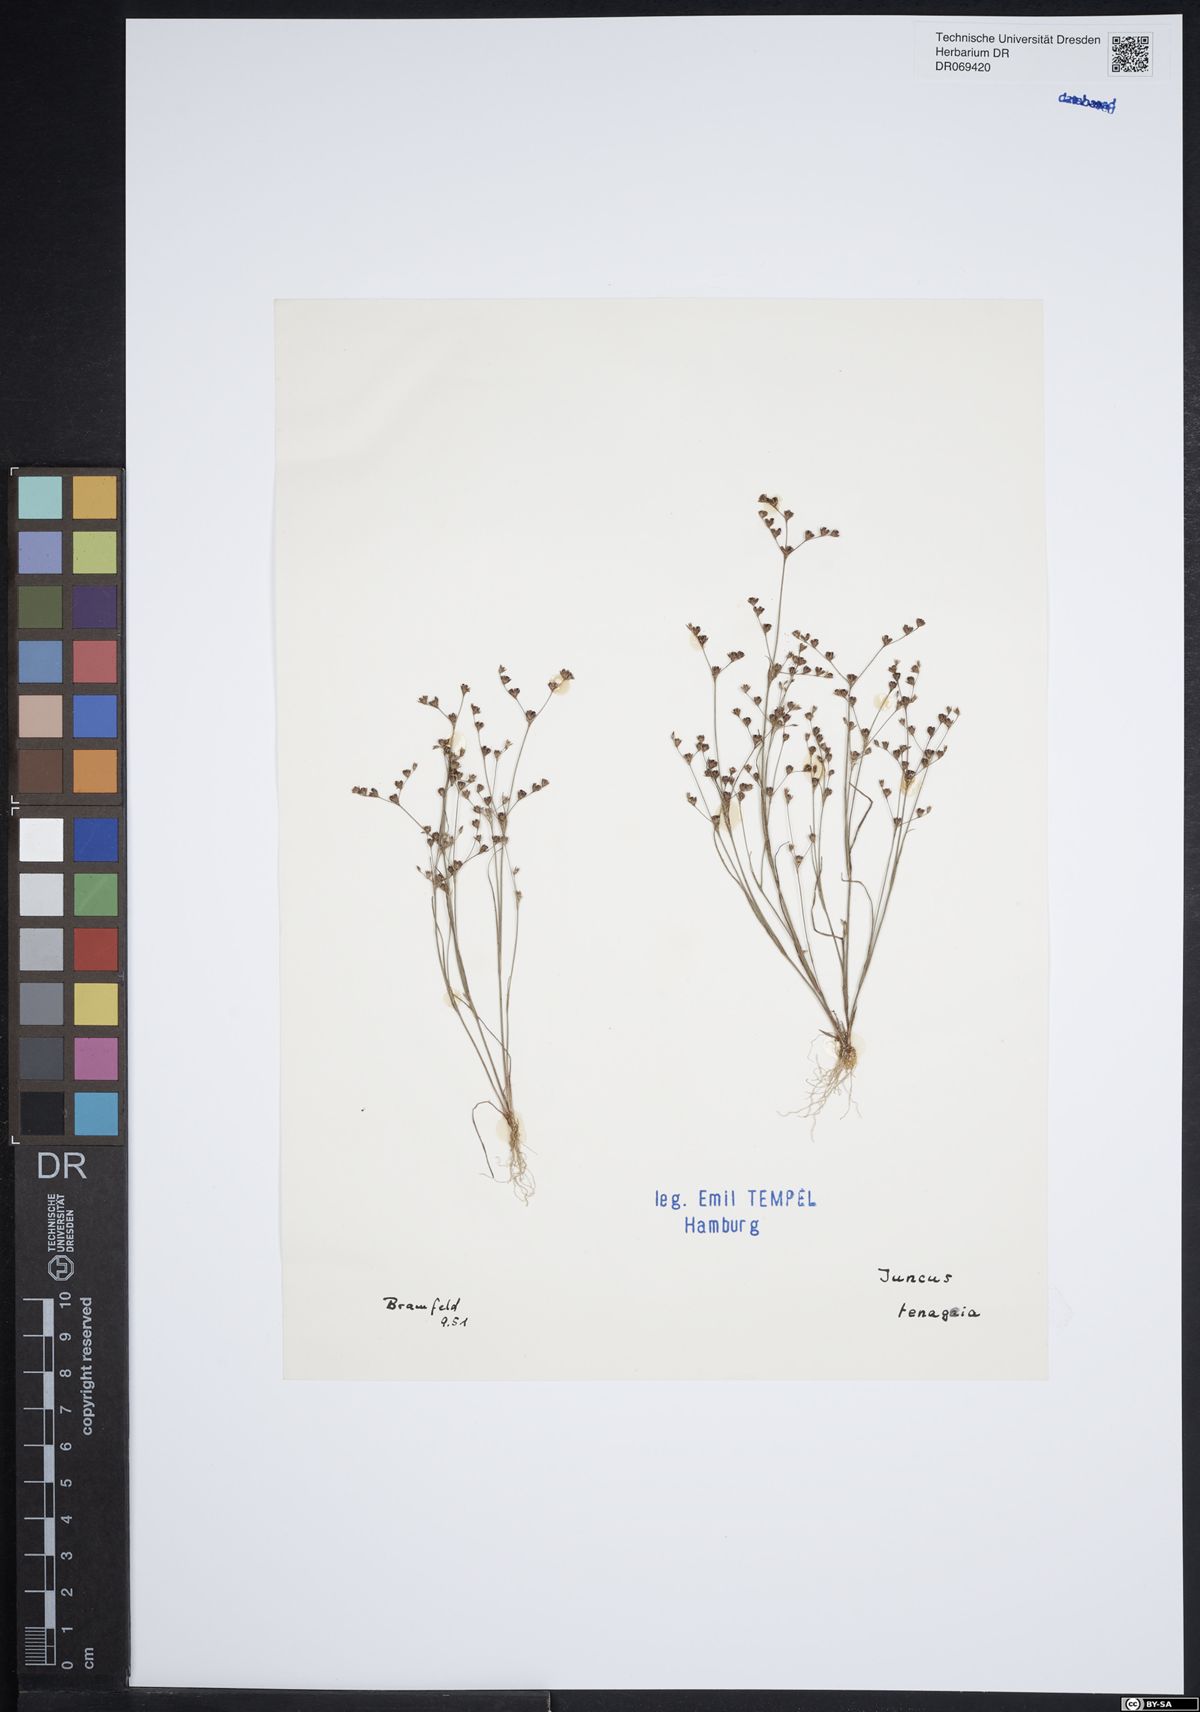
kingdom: Plantae
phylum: Tracheophyta
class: Liliopsida
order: Poales
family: Juncaceae
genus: Juncus
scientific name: Juncus tenageia
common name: Sand rush
